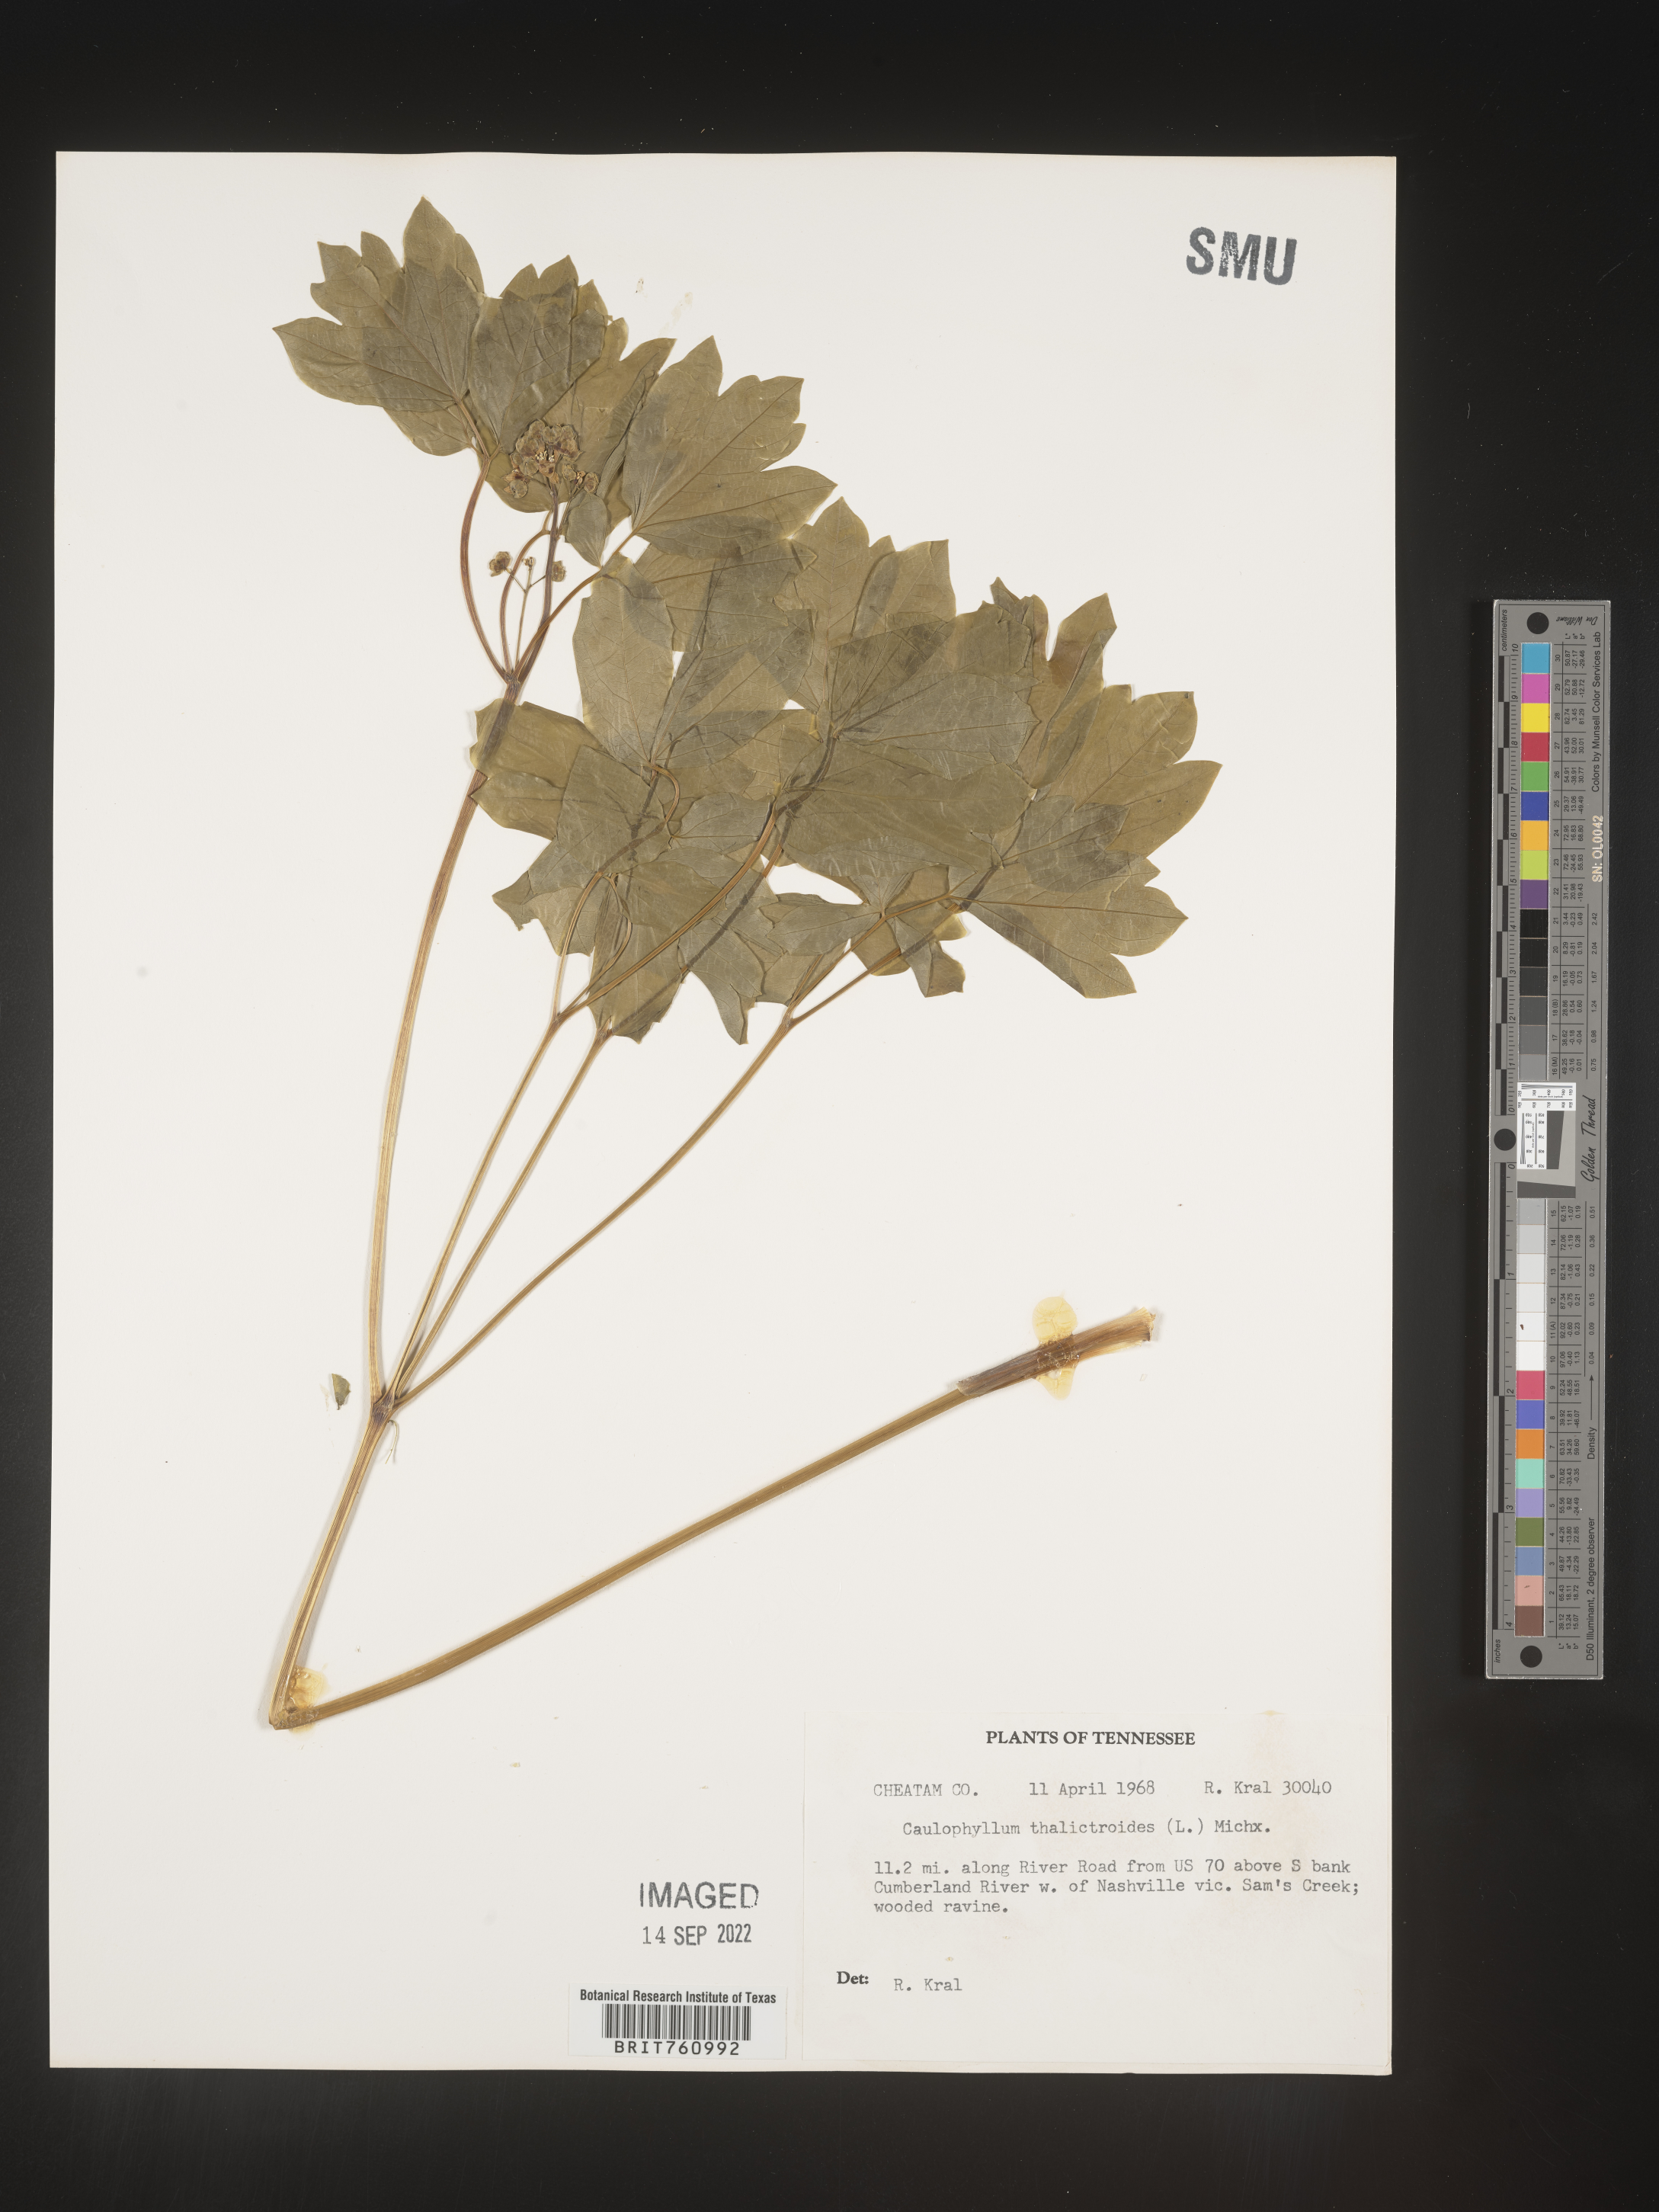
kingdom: Plantae
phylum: Tracheophyta
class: Magnoliopsida
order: Ranunculales
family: Berberidaceae
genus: Caulophyllum
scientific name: Caulophyllum thalictroides
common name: Blue cohosh
